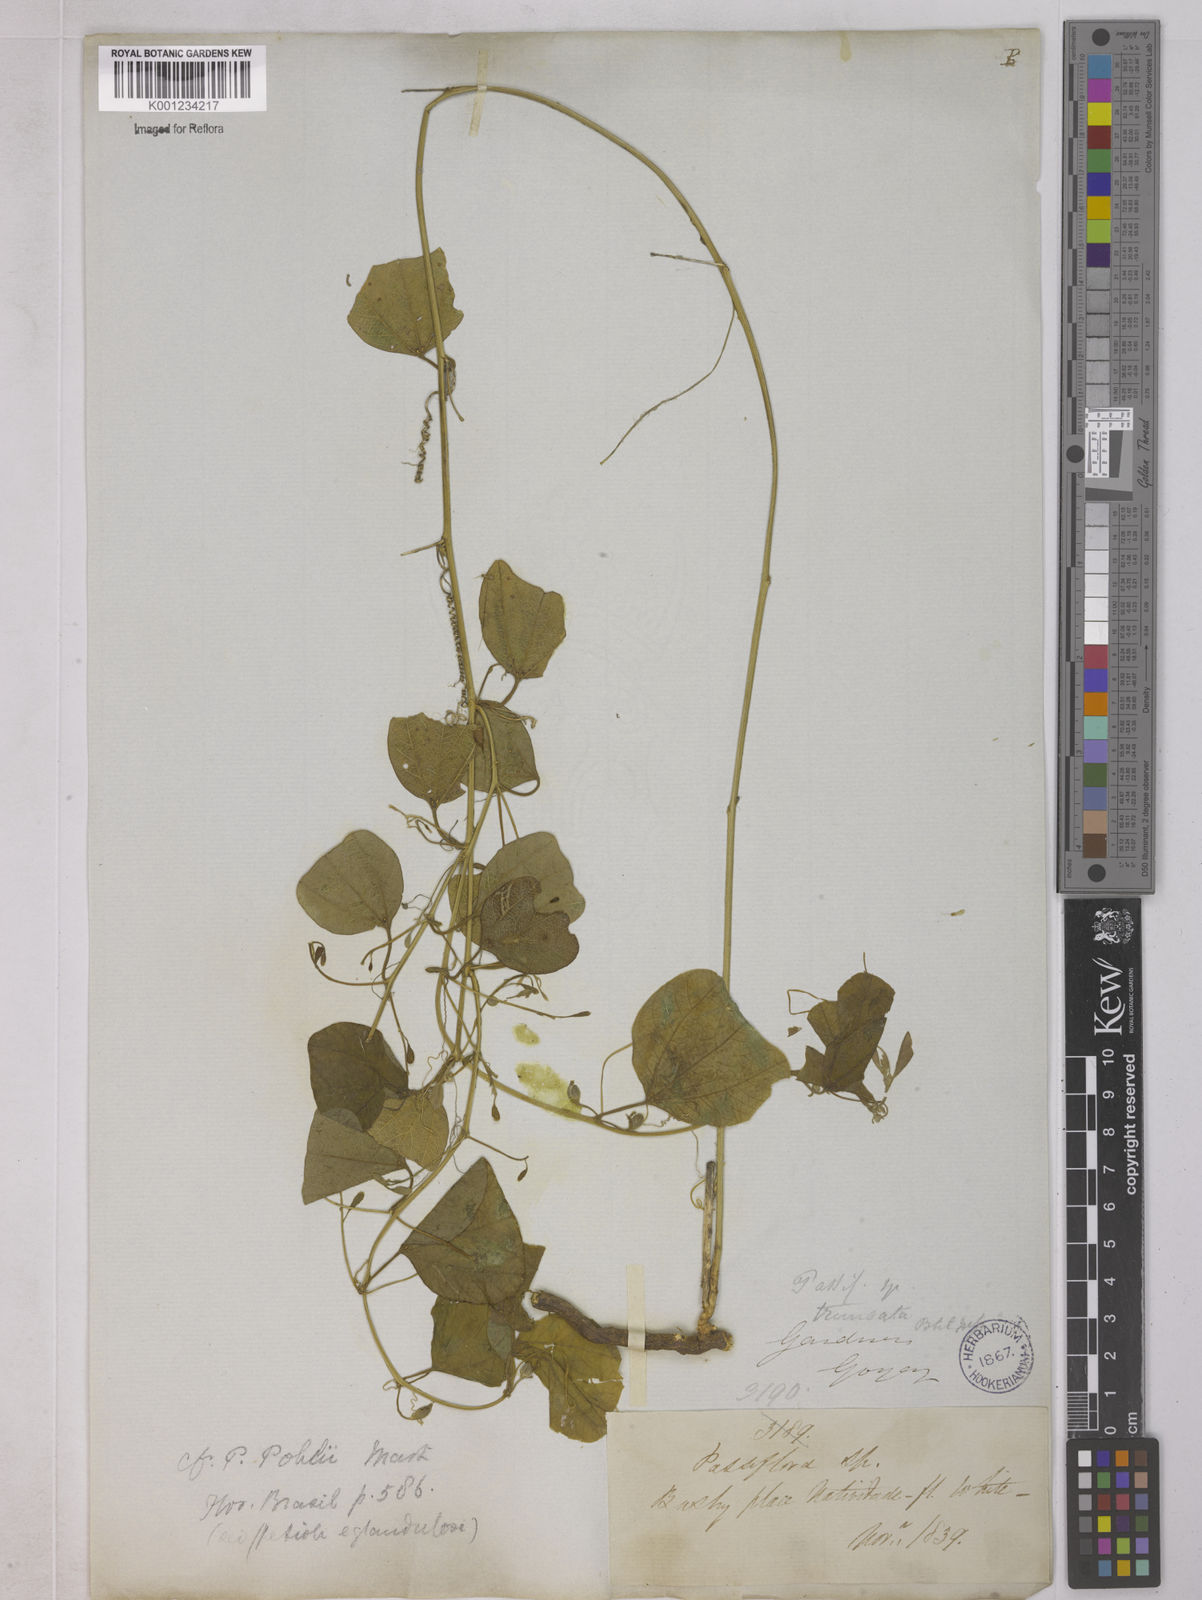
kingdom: Plantae
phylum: Tracheophyta
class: Magnoliopsida
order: Malpighiales
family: Passifloraceae
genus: Passiflora
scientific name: Passiflora pohlii
